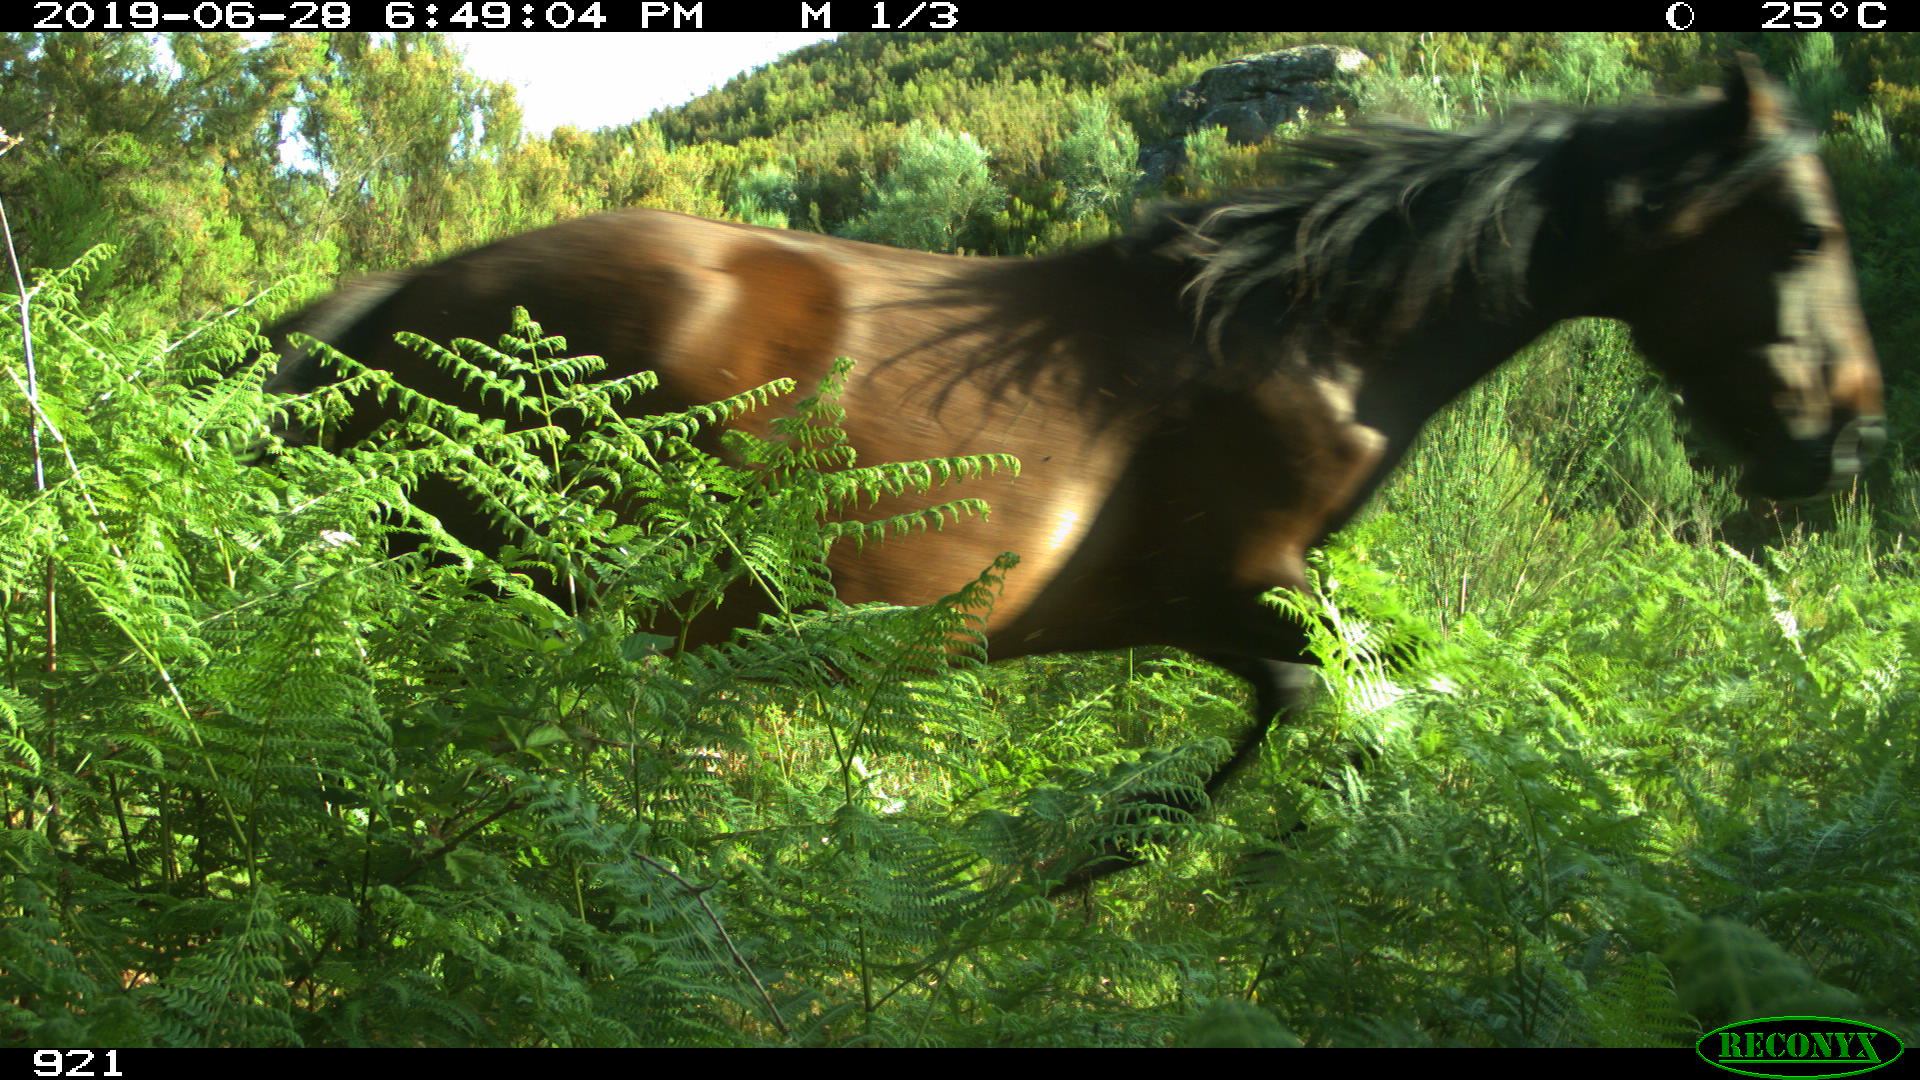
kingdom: Animalia
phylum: Chordata
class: Mammalia
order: Perissodactyla
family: Equidae
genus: Equus
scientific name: Equus caballus
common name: Horse
